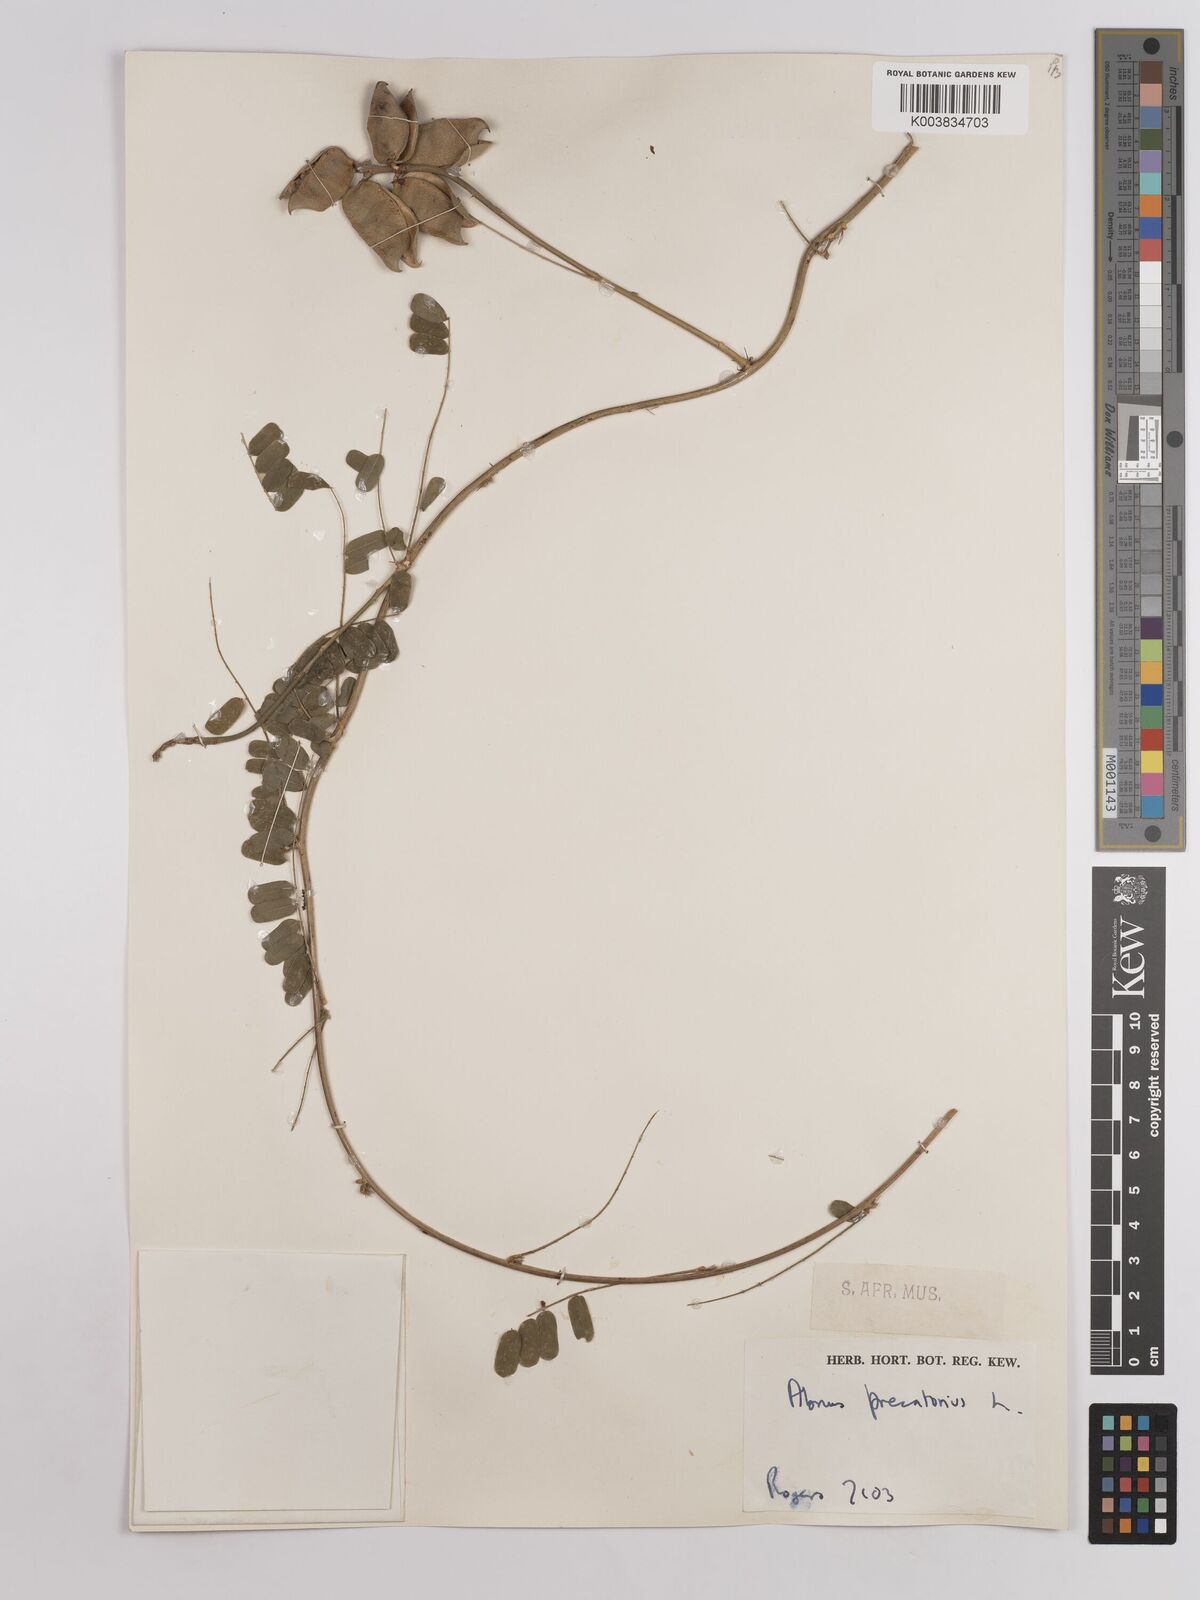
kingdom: Plantae
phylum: Tracheophyta
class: Magnoliopsida
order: Fabales
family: Fabaceae
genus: Abrus
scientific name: Abrus precatorius
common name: Rosarypea
